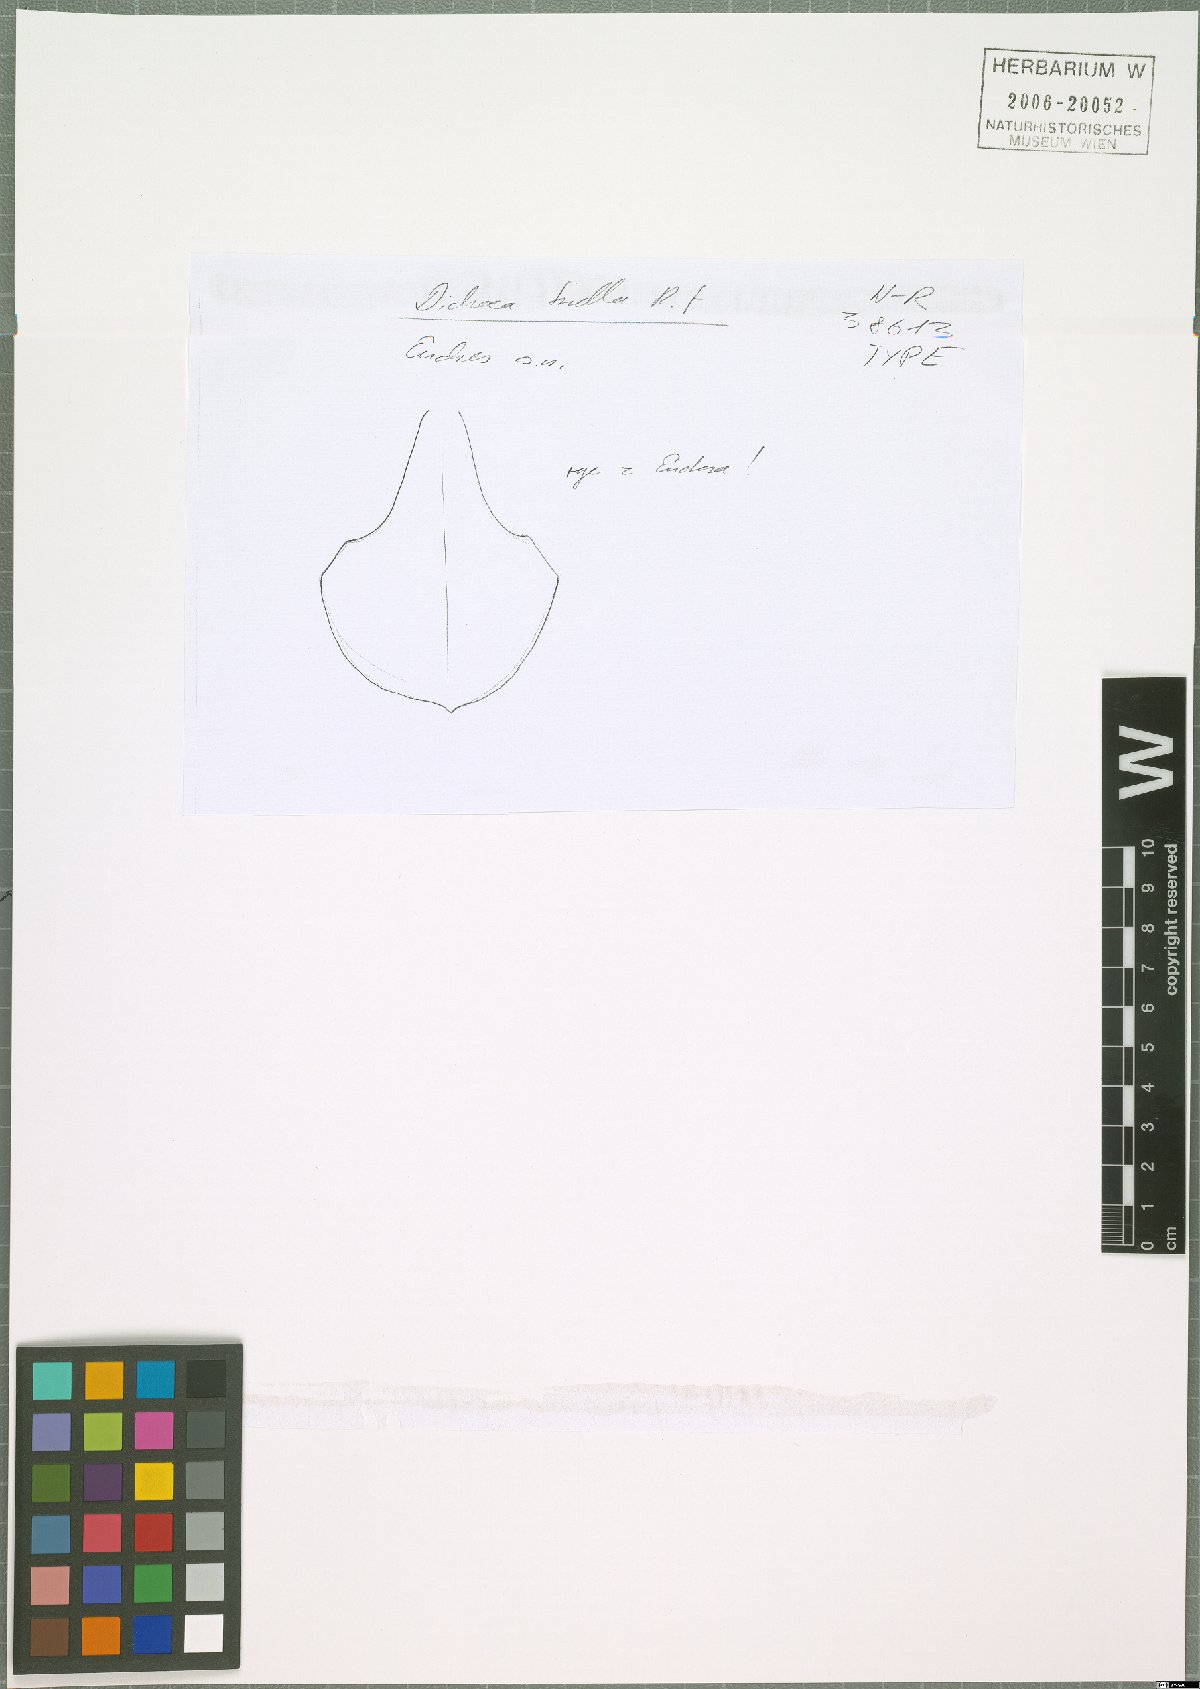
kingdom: Plantae
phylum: Tracheophyta
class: Liliopsida
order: Asparagales
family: Orchidaceae
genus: Dichaea
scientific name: Dichaea trulla
